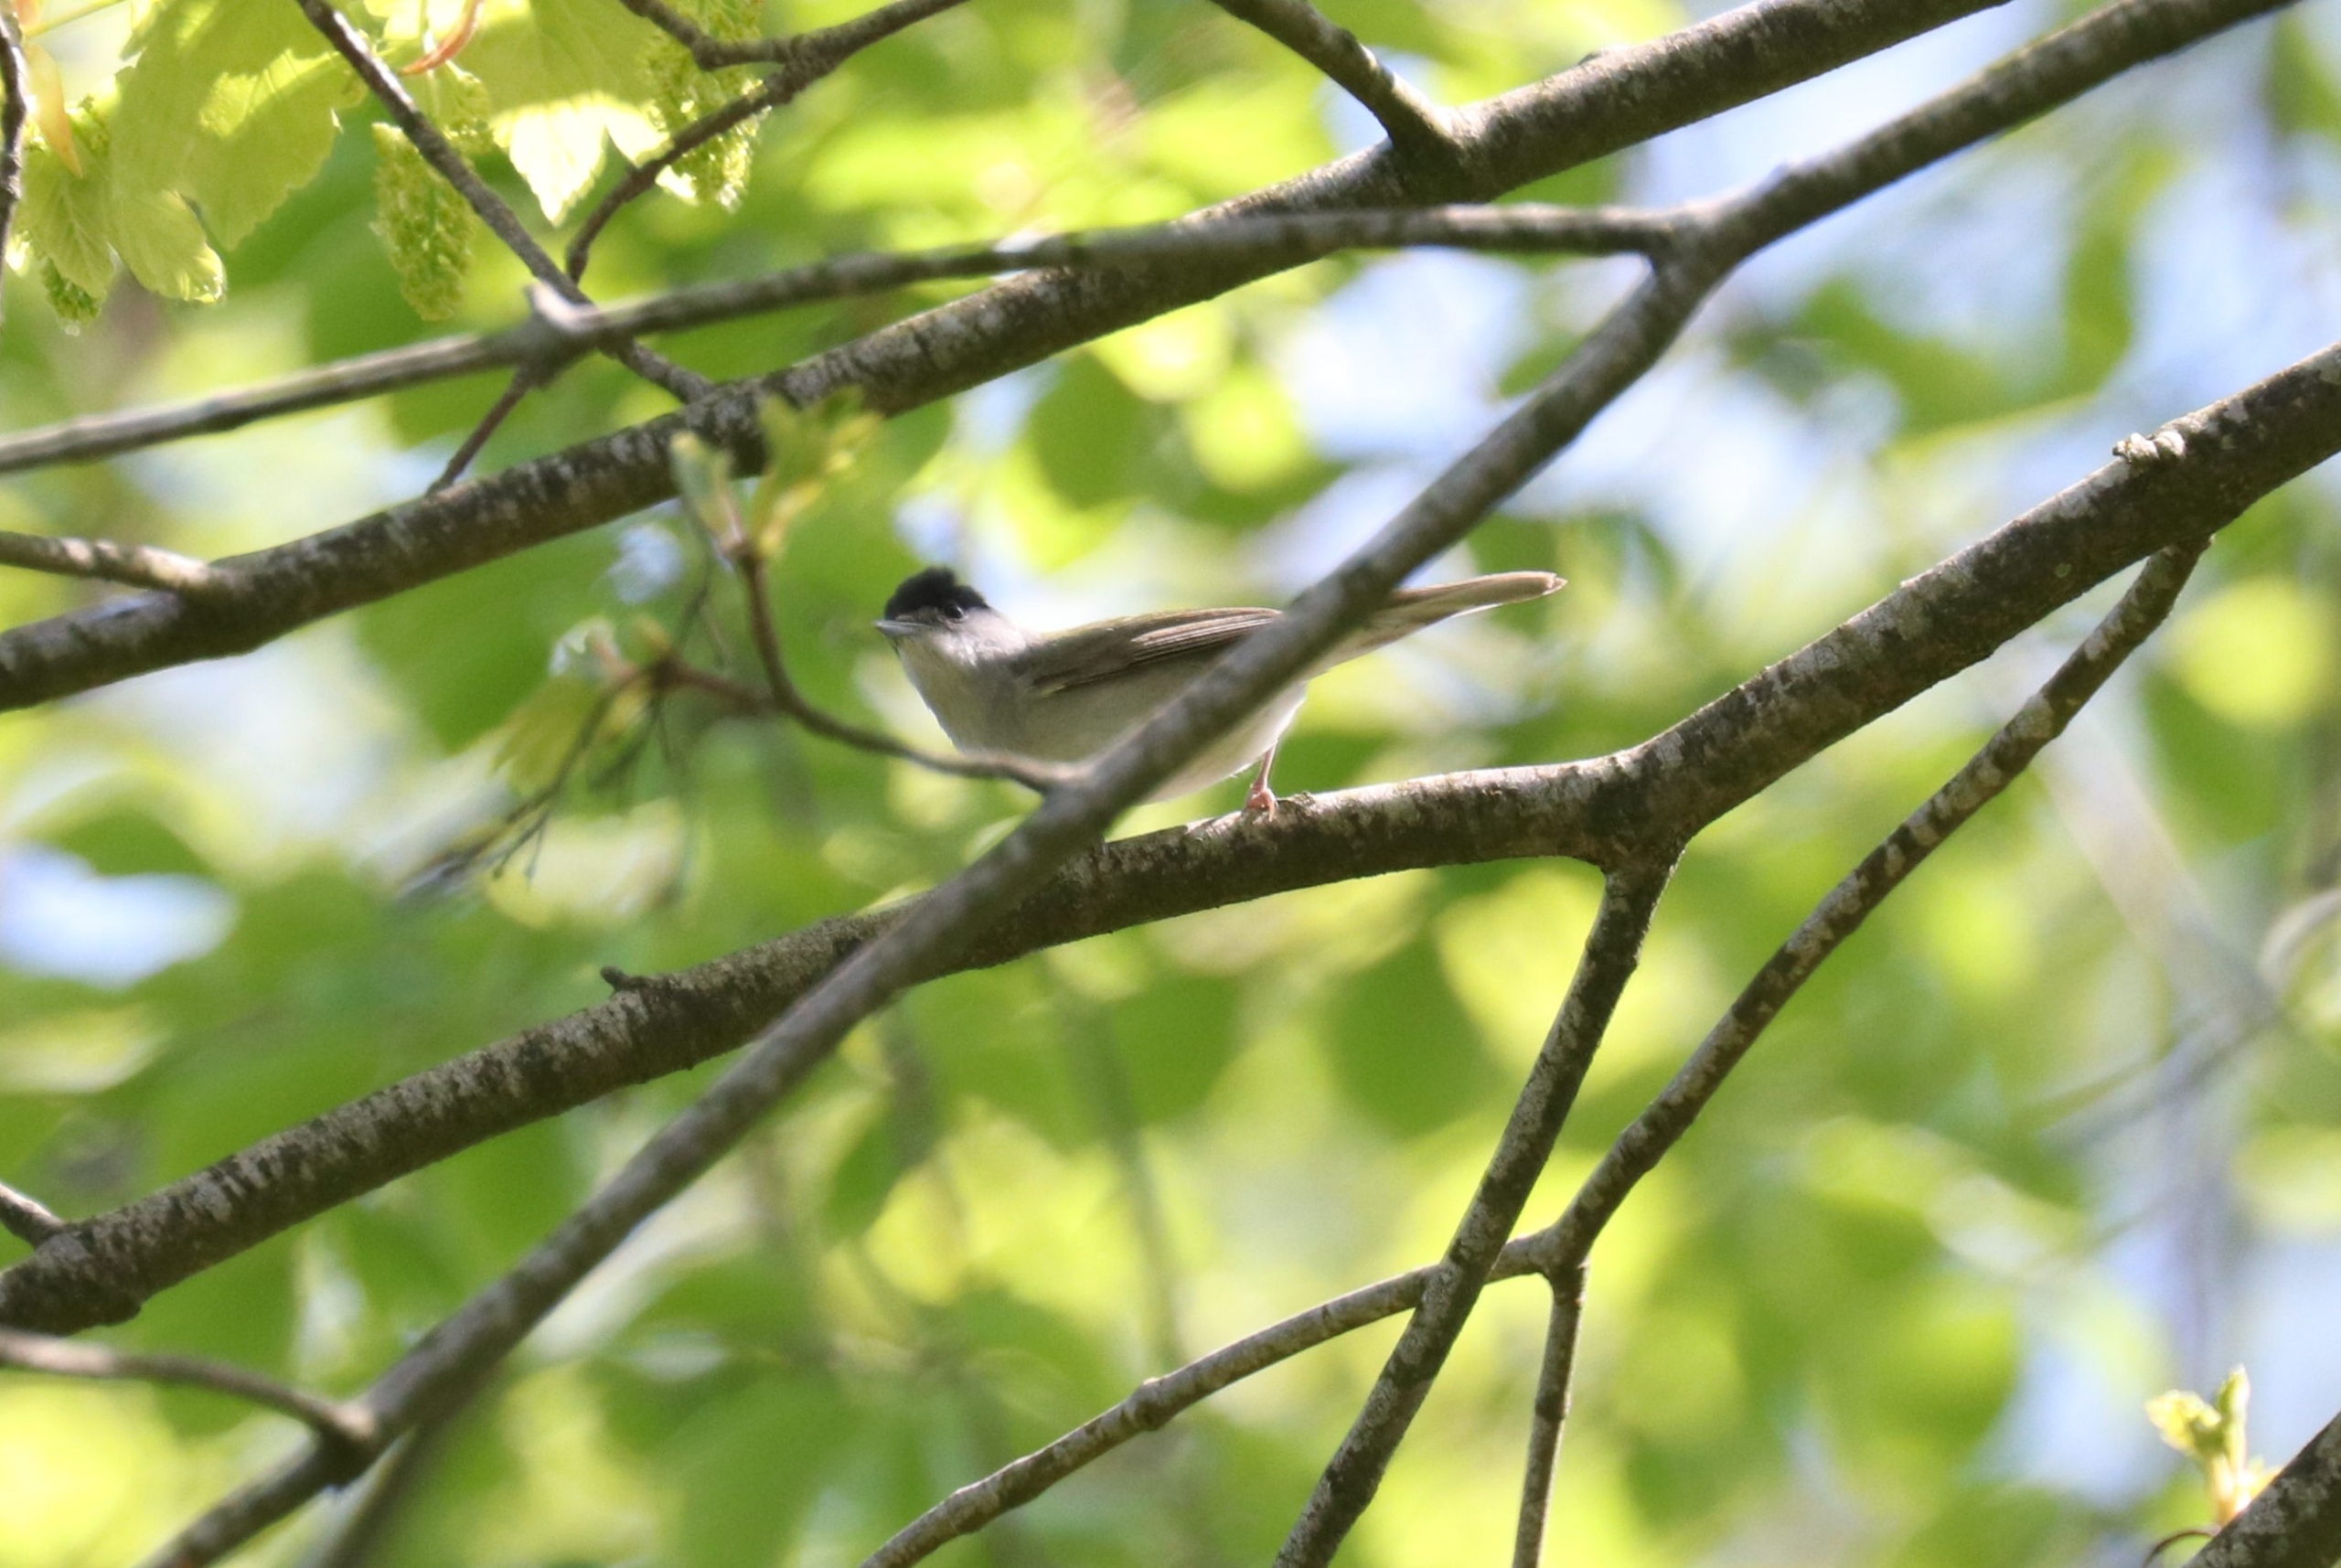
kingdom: Animalia
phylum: Chordata
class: Aves
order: Passeriformes
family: Sylviidae
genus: Sylvia
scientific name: Sylvia atricapilla
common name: Munk
